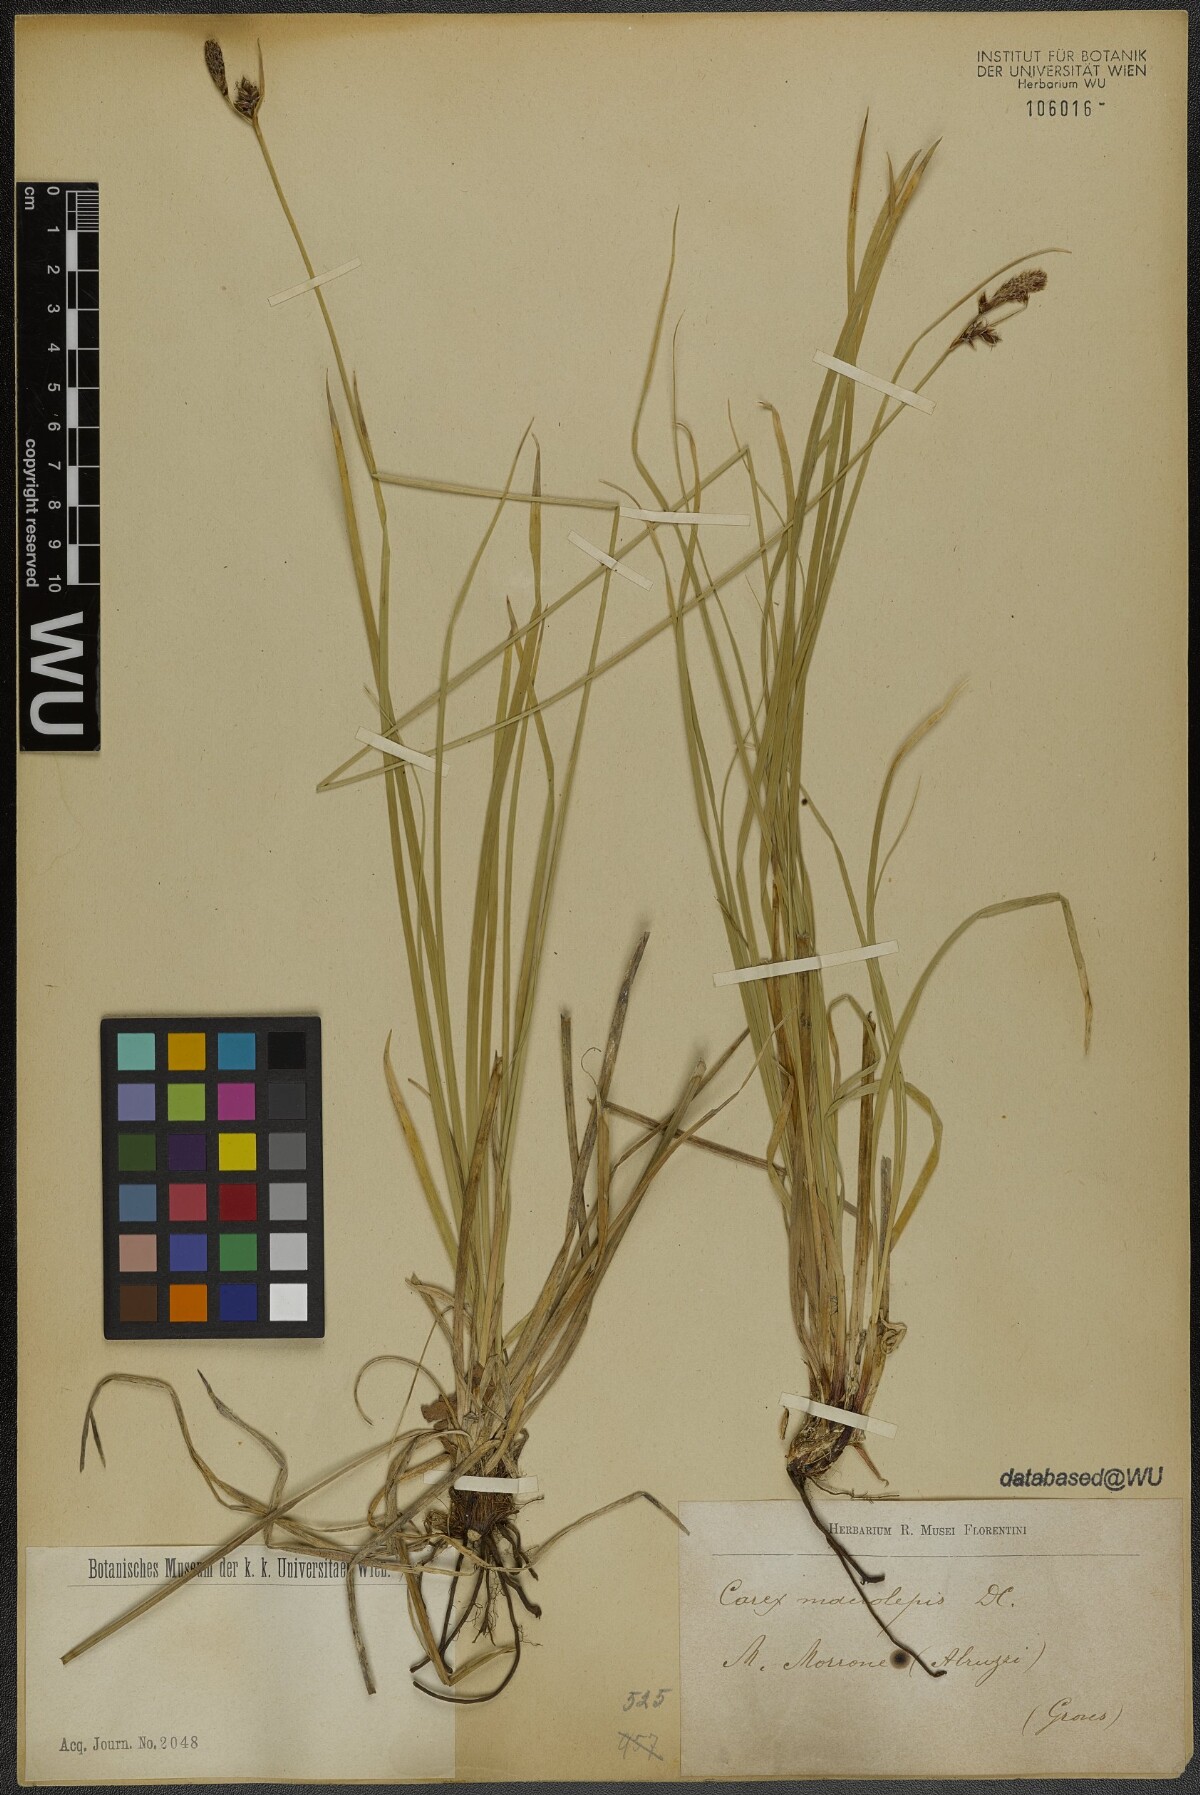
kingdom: Plantae
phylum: Tracheophyta
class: Liliopsida
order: Poales
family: Cyperaceae
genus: Carex
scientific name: Carex macrolepis
